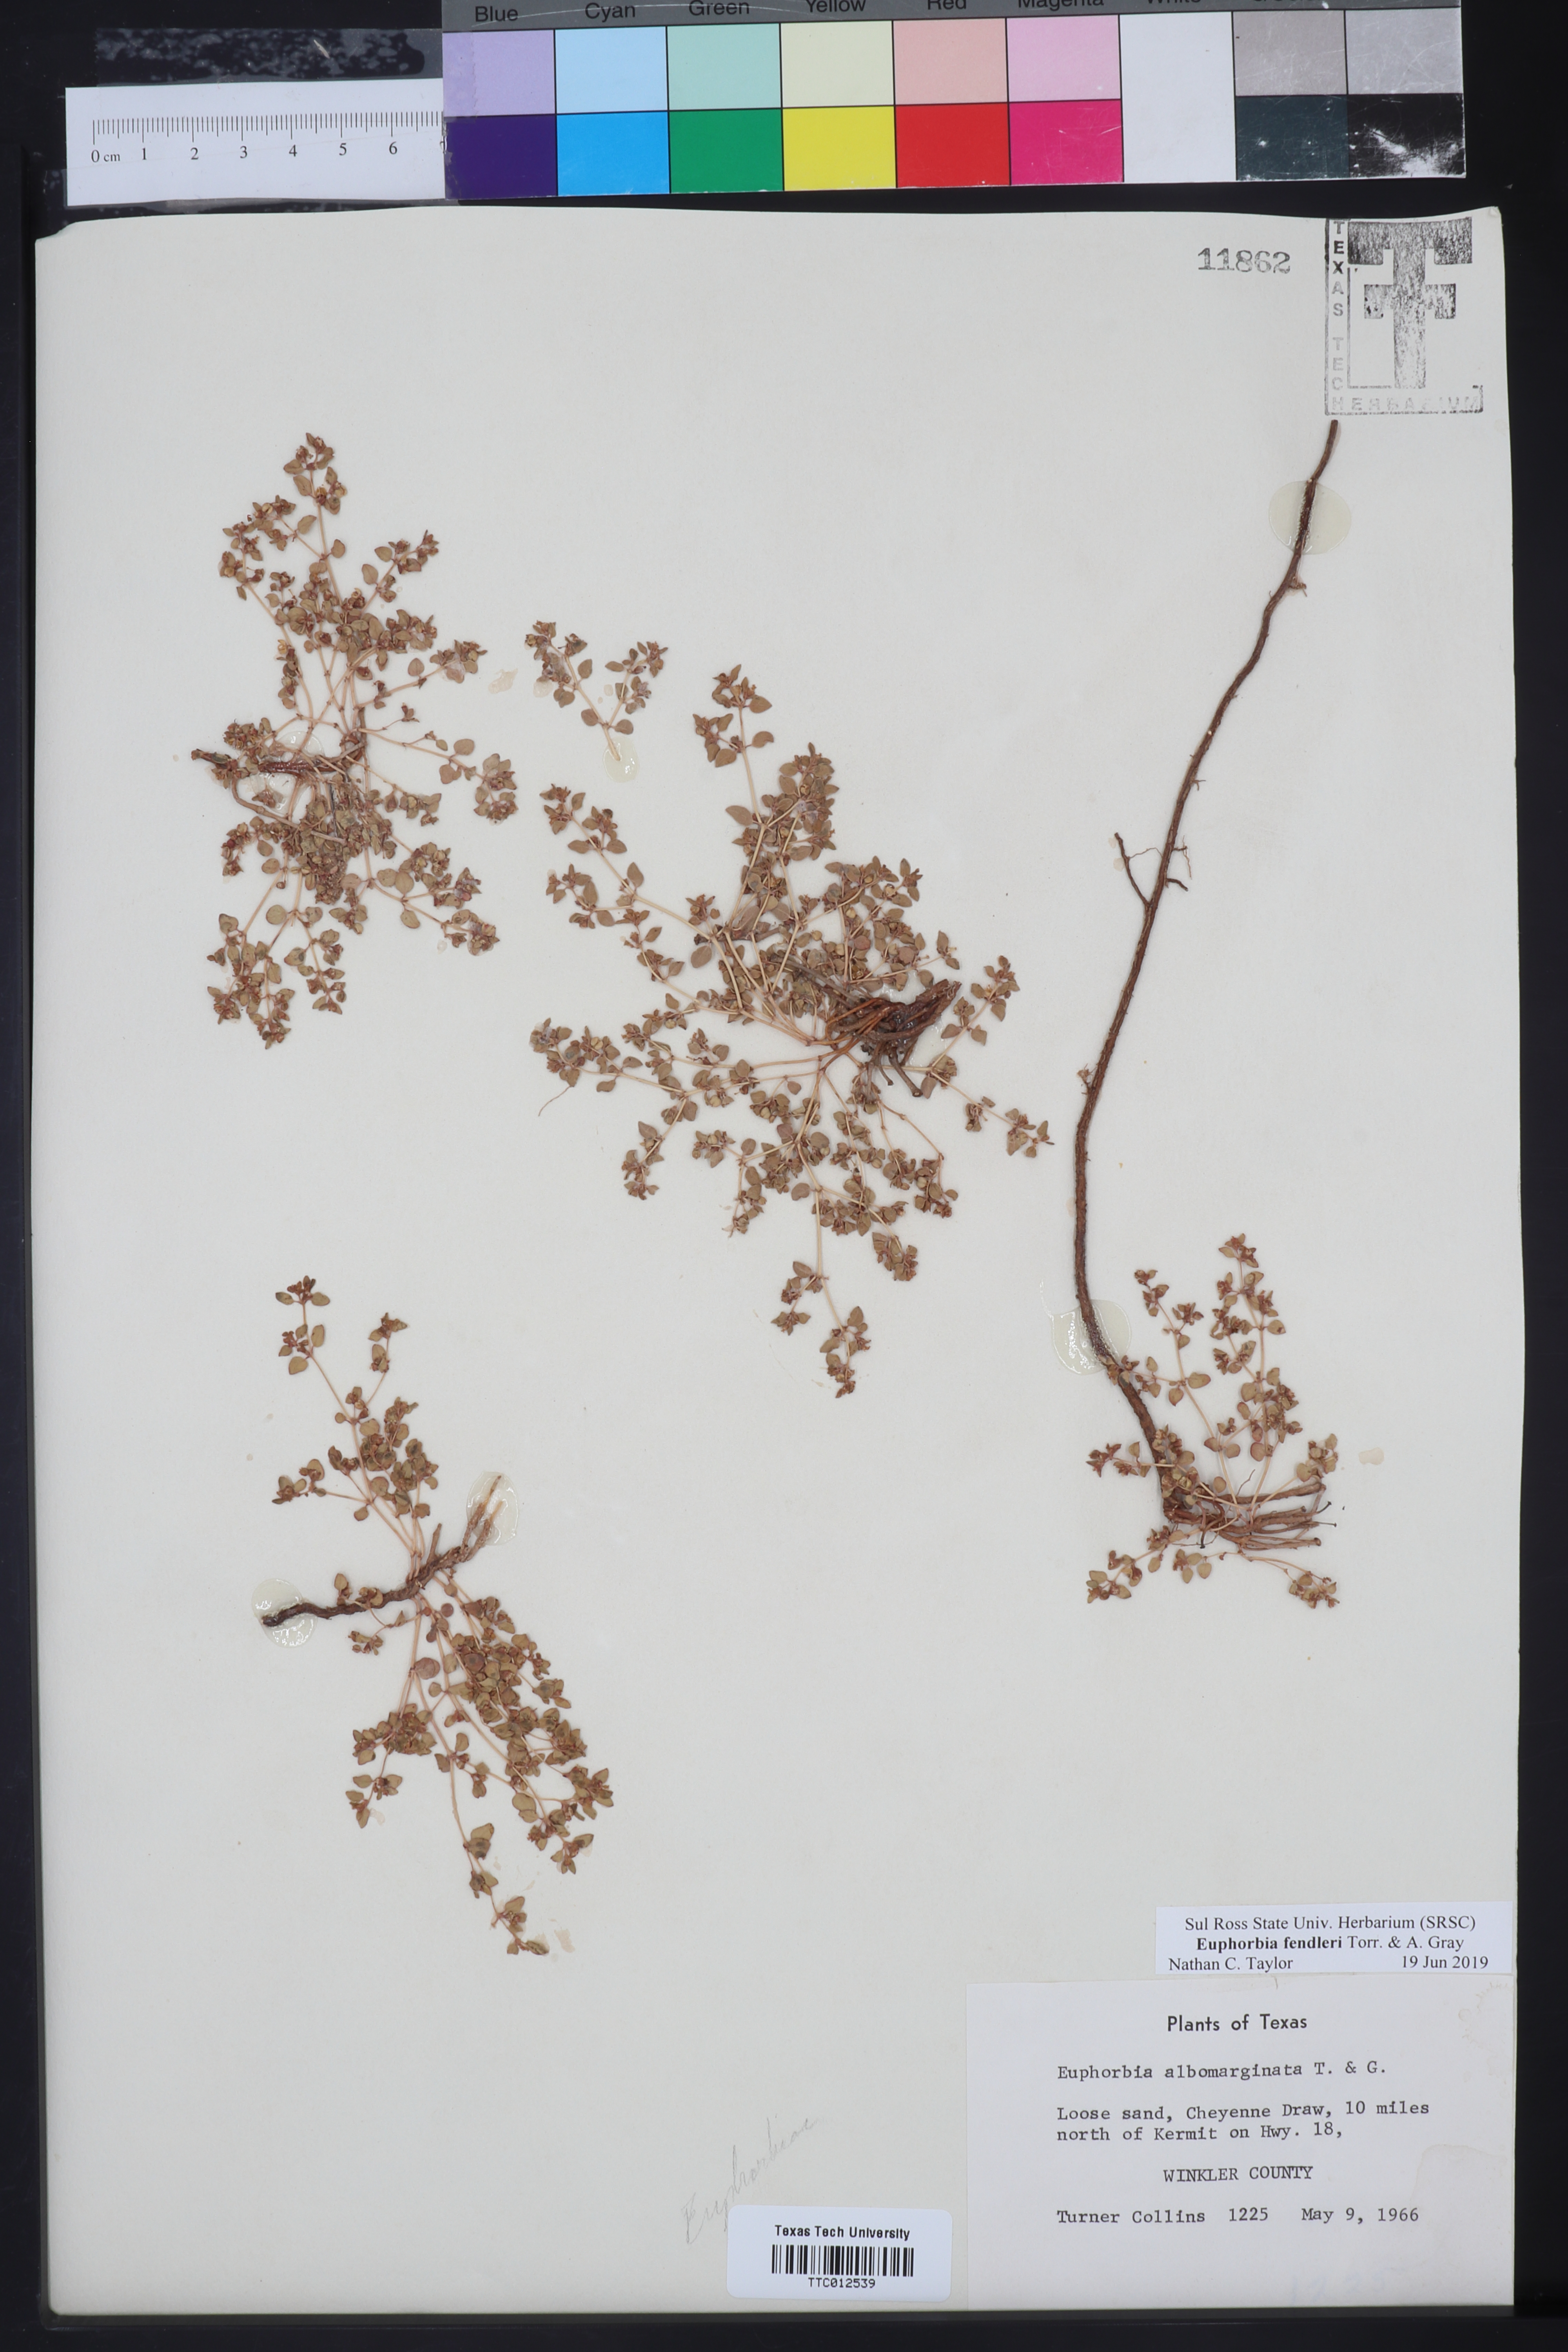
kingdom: Plantae
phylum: Tracheophyta
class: Magnoliopsida
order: Malpighiales
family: Euphorbiaceae
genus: Euphorbia
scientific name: Euphorbia fendleri
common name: Fendler's euphorbia
